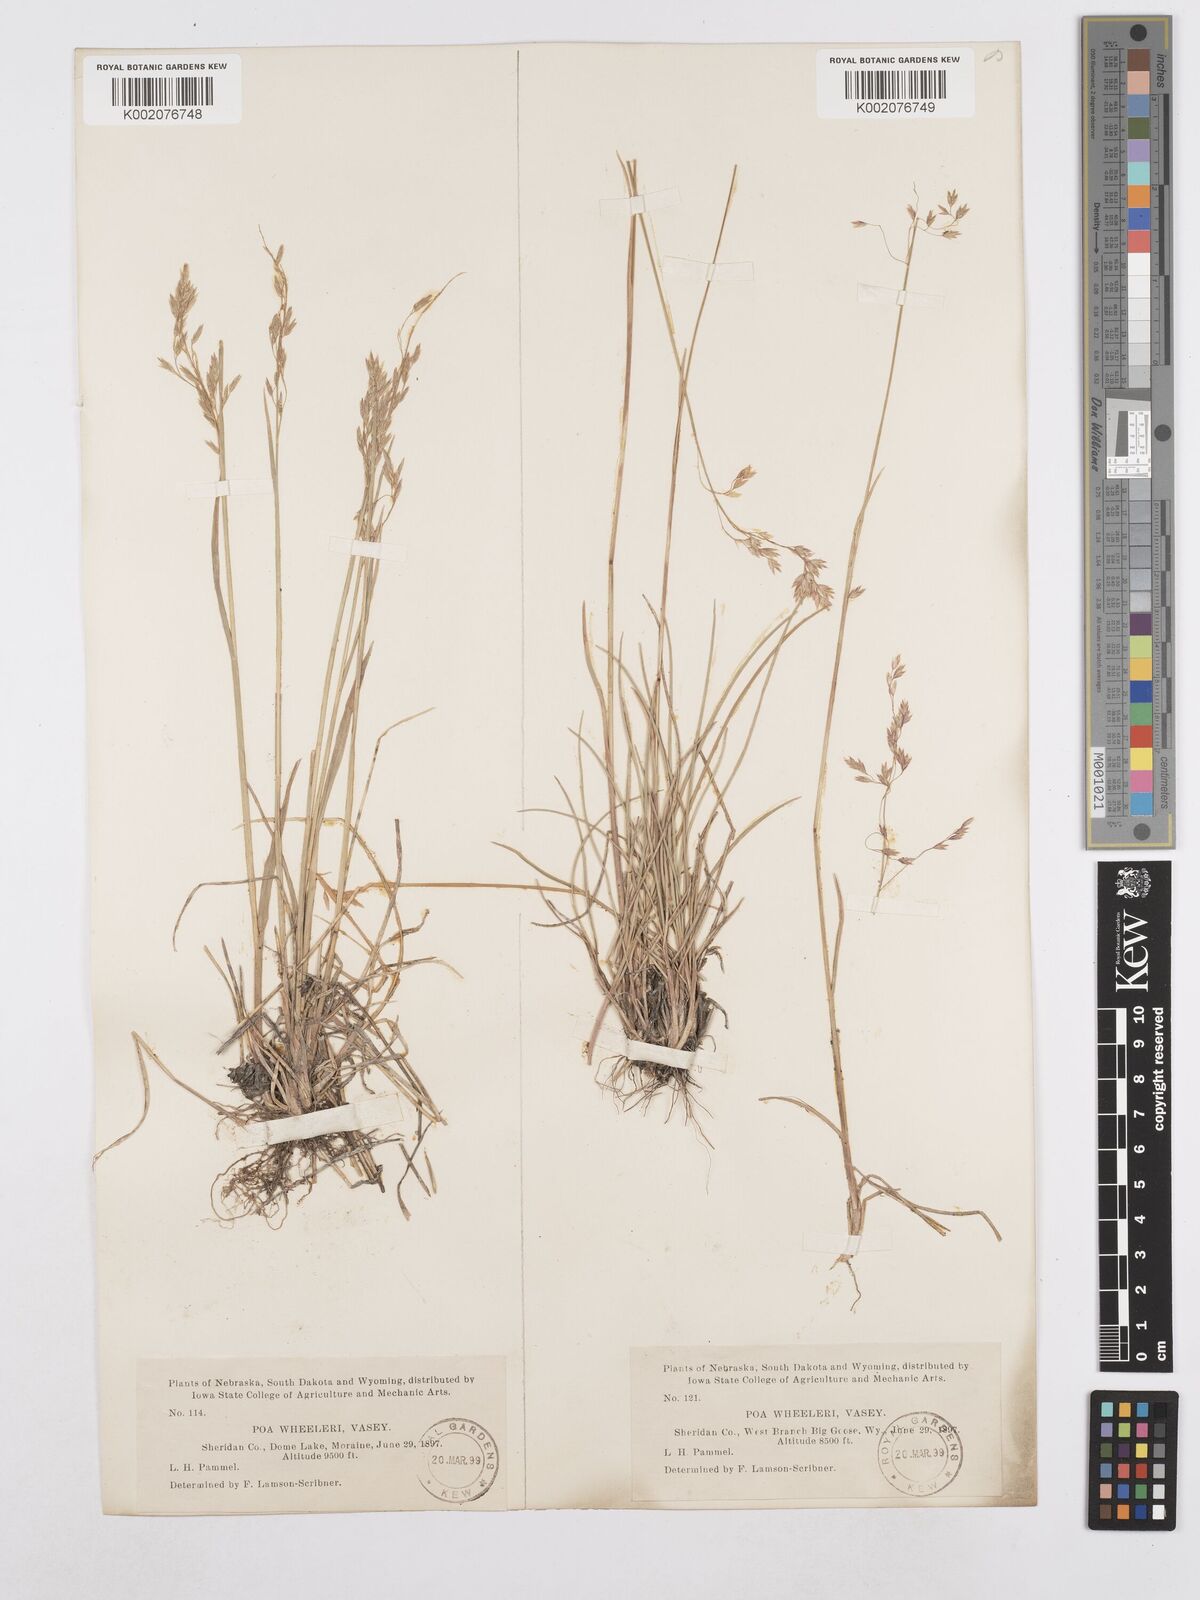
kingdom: Plantae
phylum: Tracheophyta
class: Liliopsida
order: Poales
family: Poaceae
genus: Poa
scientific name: Poa wheeleri
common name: Wheeler's bluegrass
